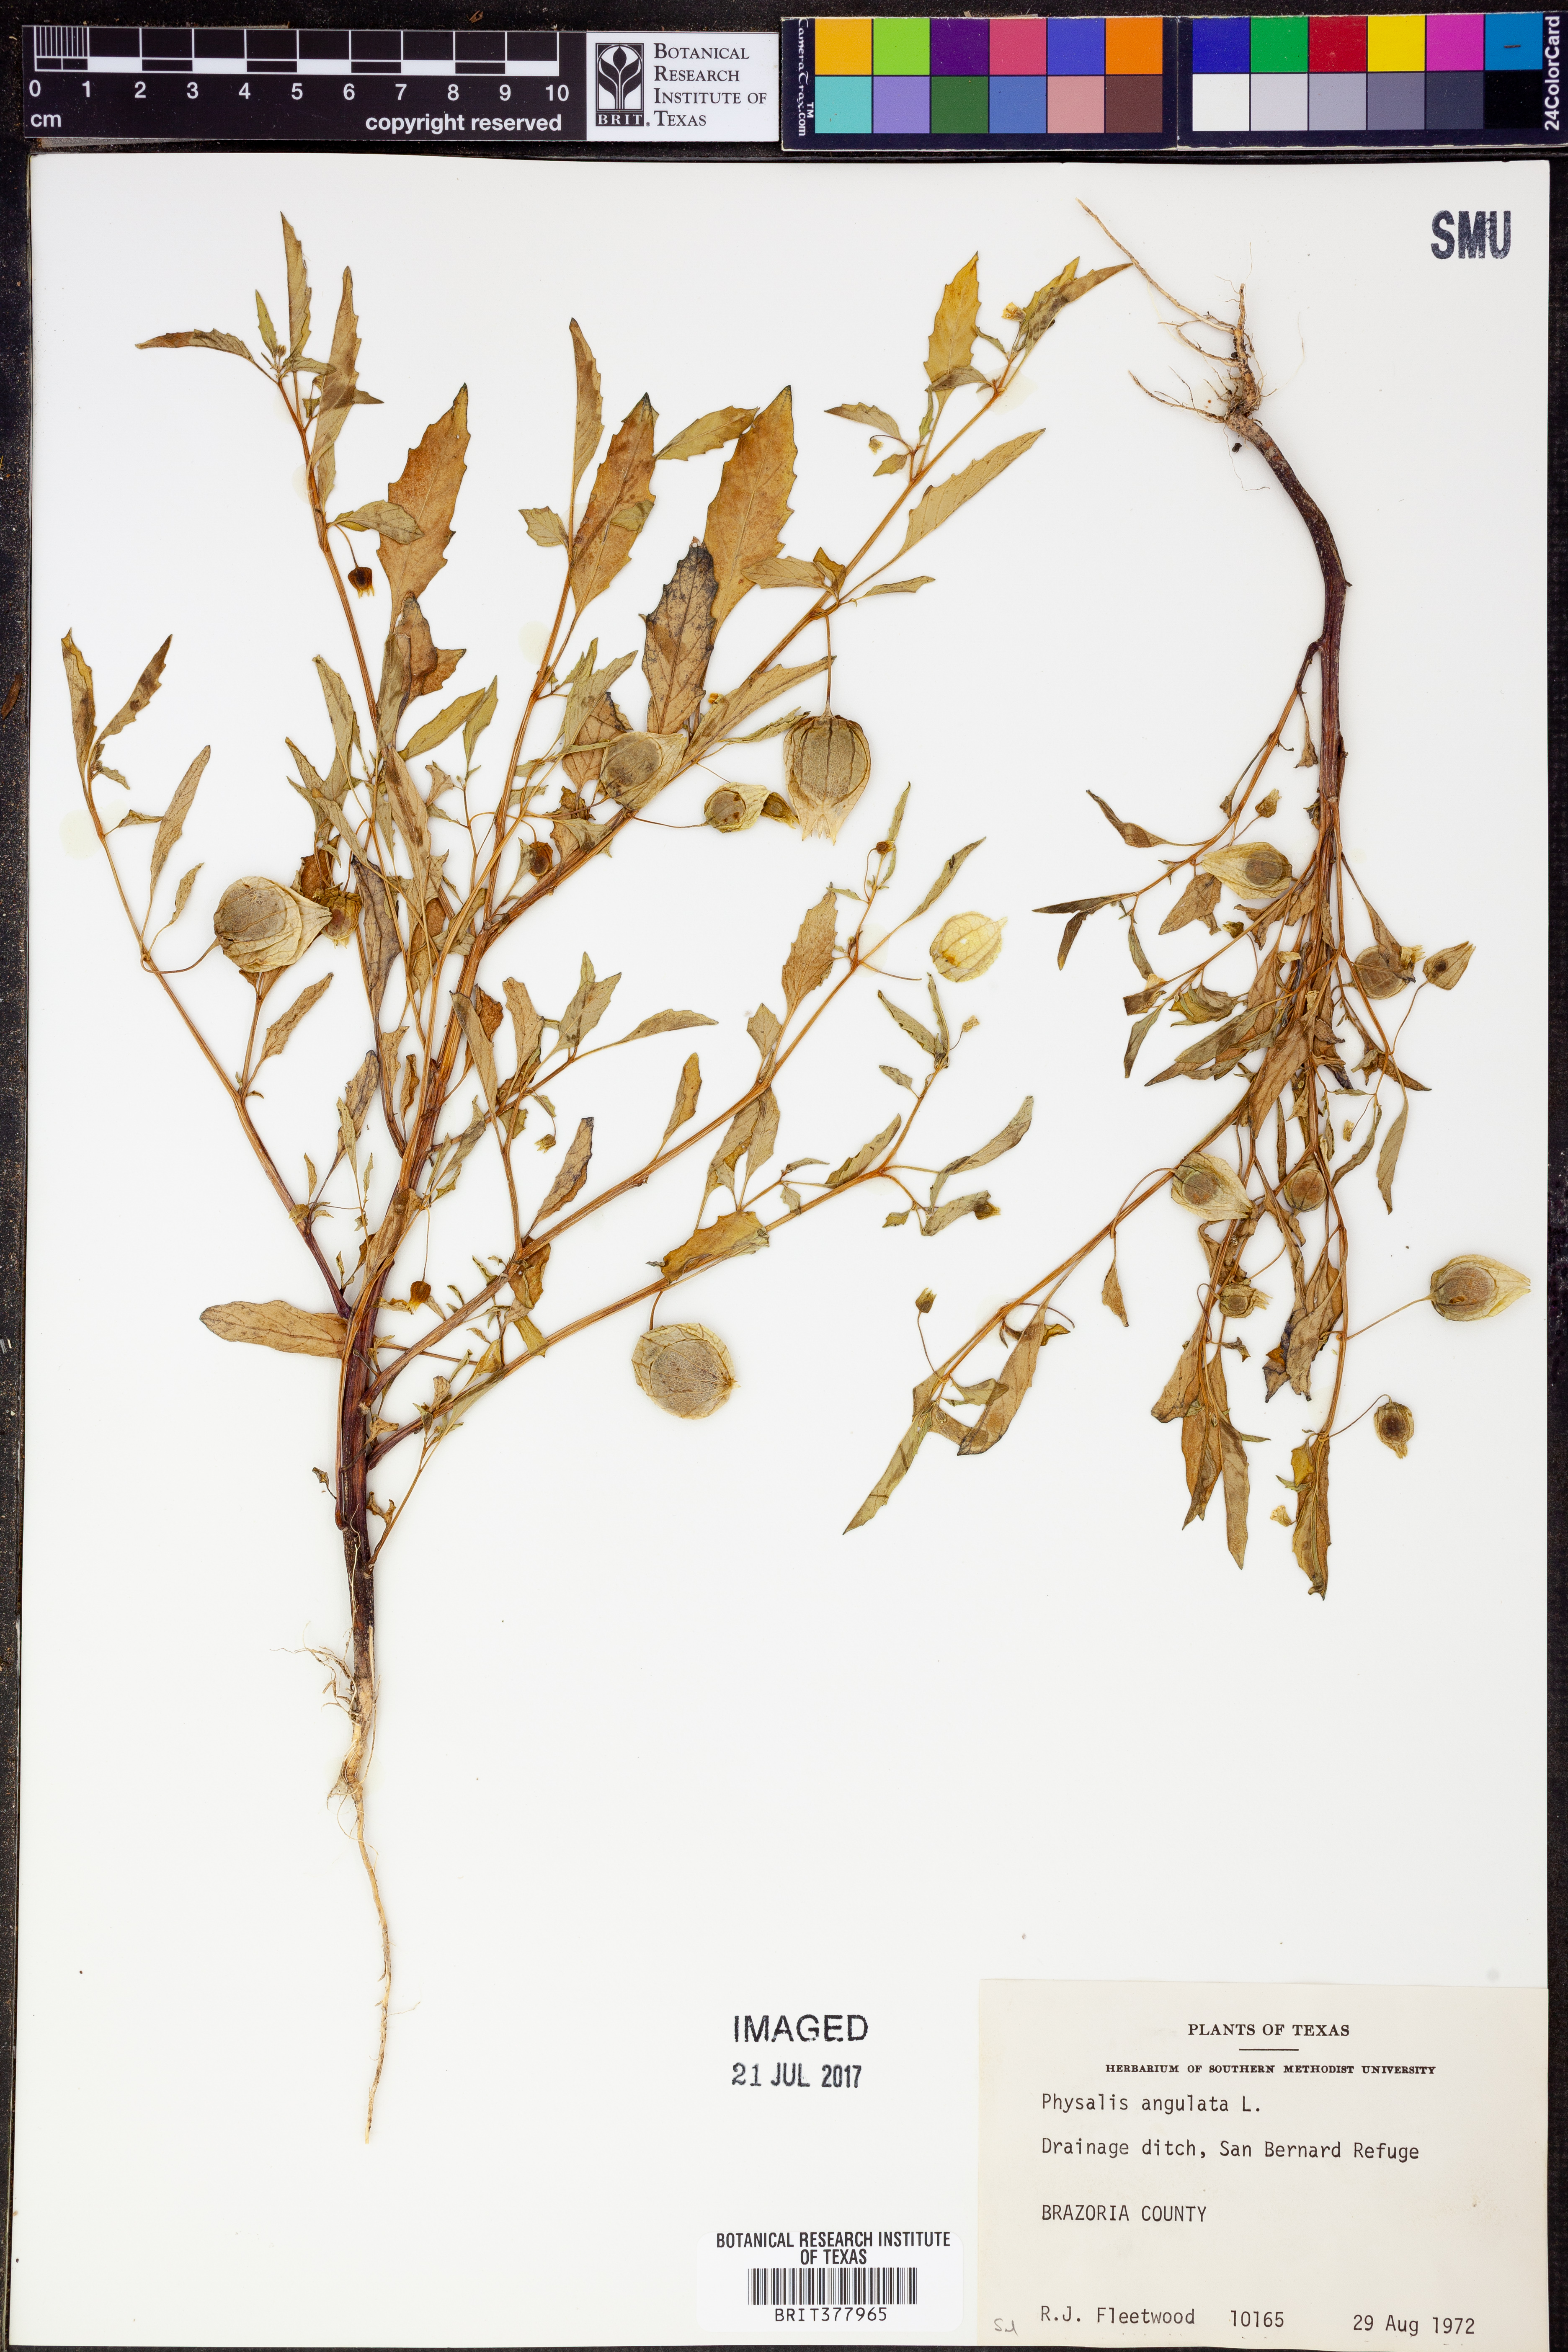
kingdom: Plantae
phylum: Tracheophyta
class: Magnoliopsida
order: Solanales
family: Solanaceae
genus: Physalis
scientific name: Physalis angulata
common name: Angular winter-cherry
